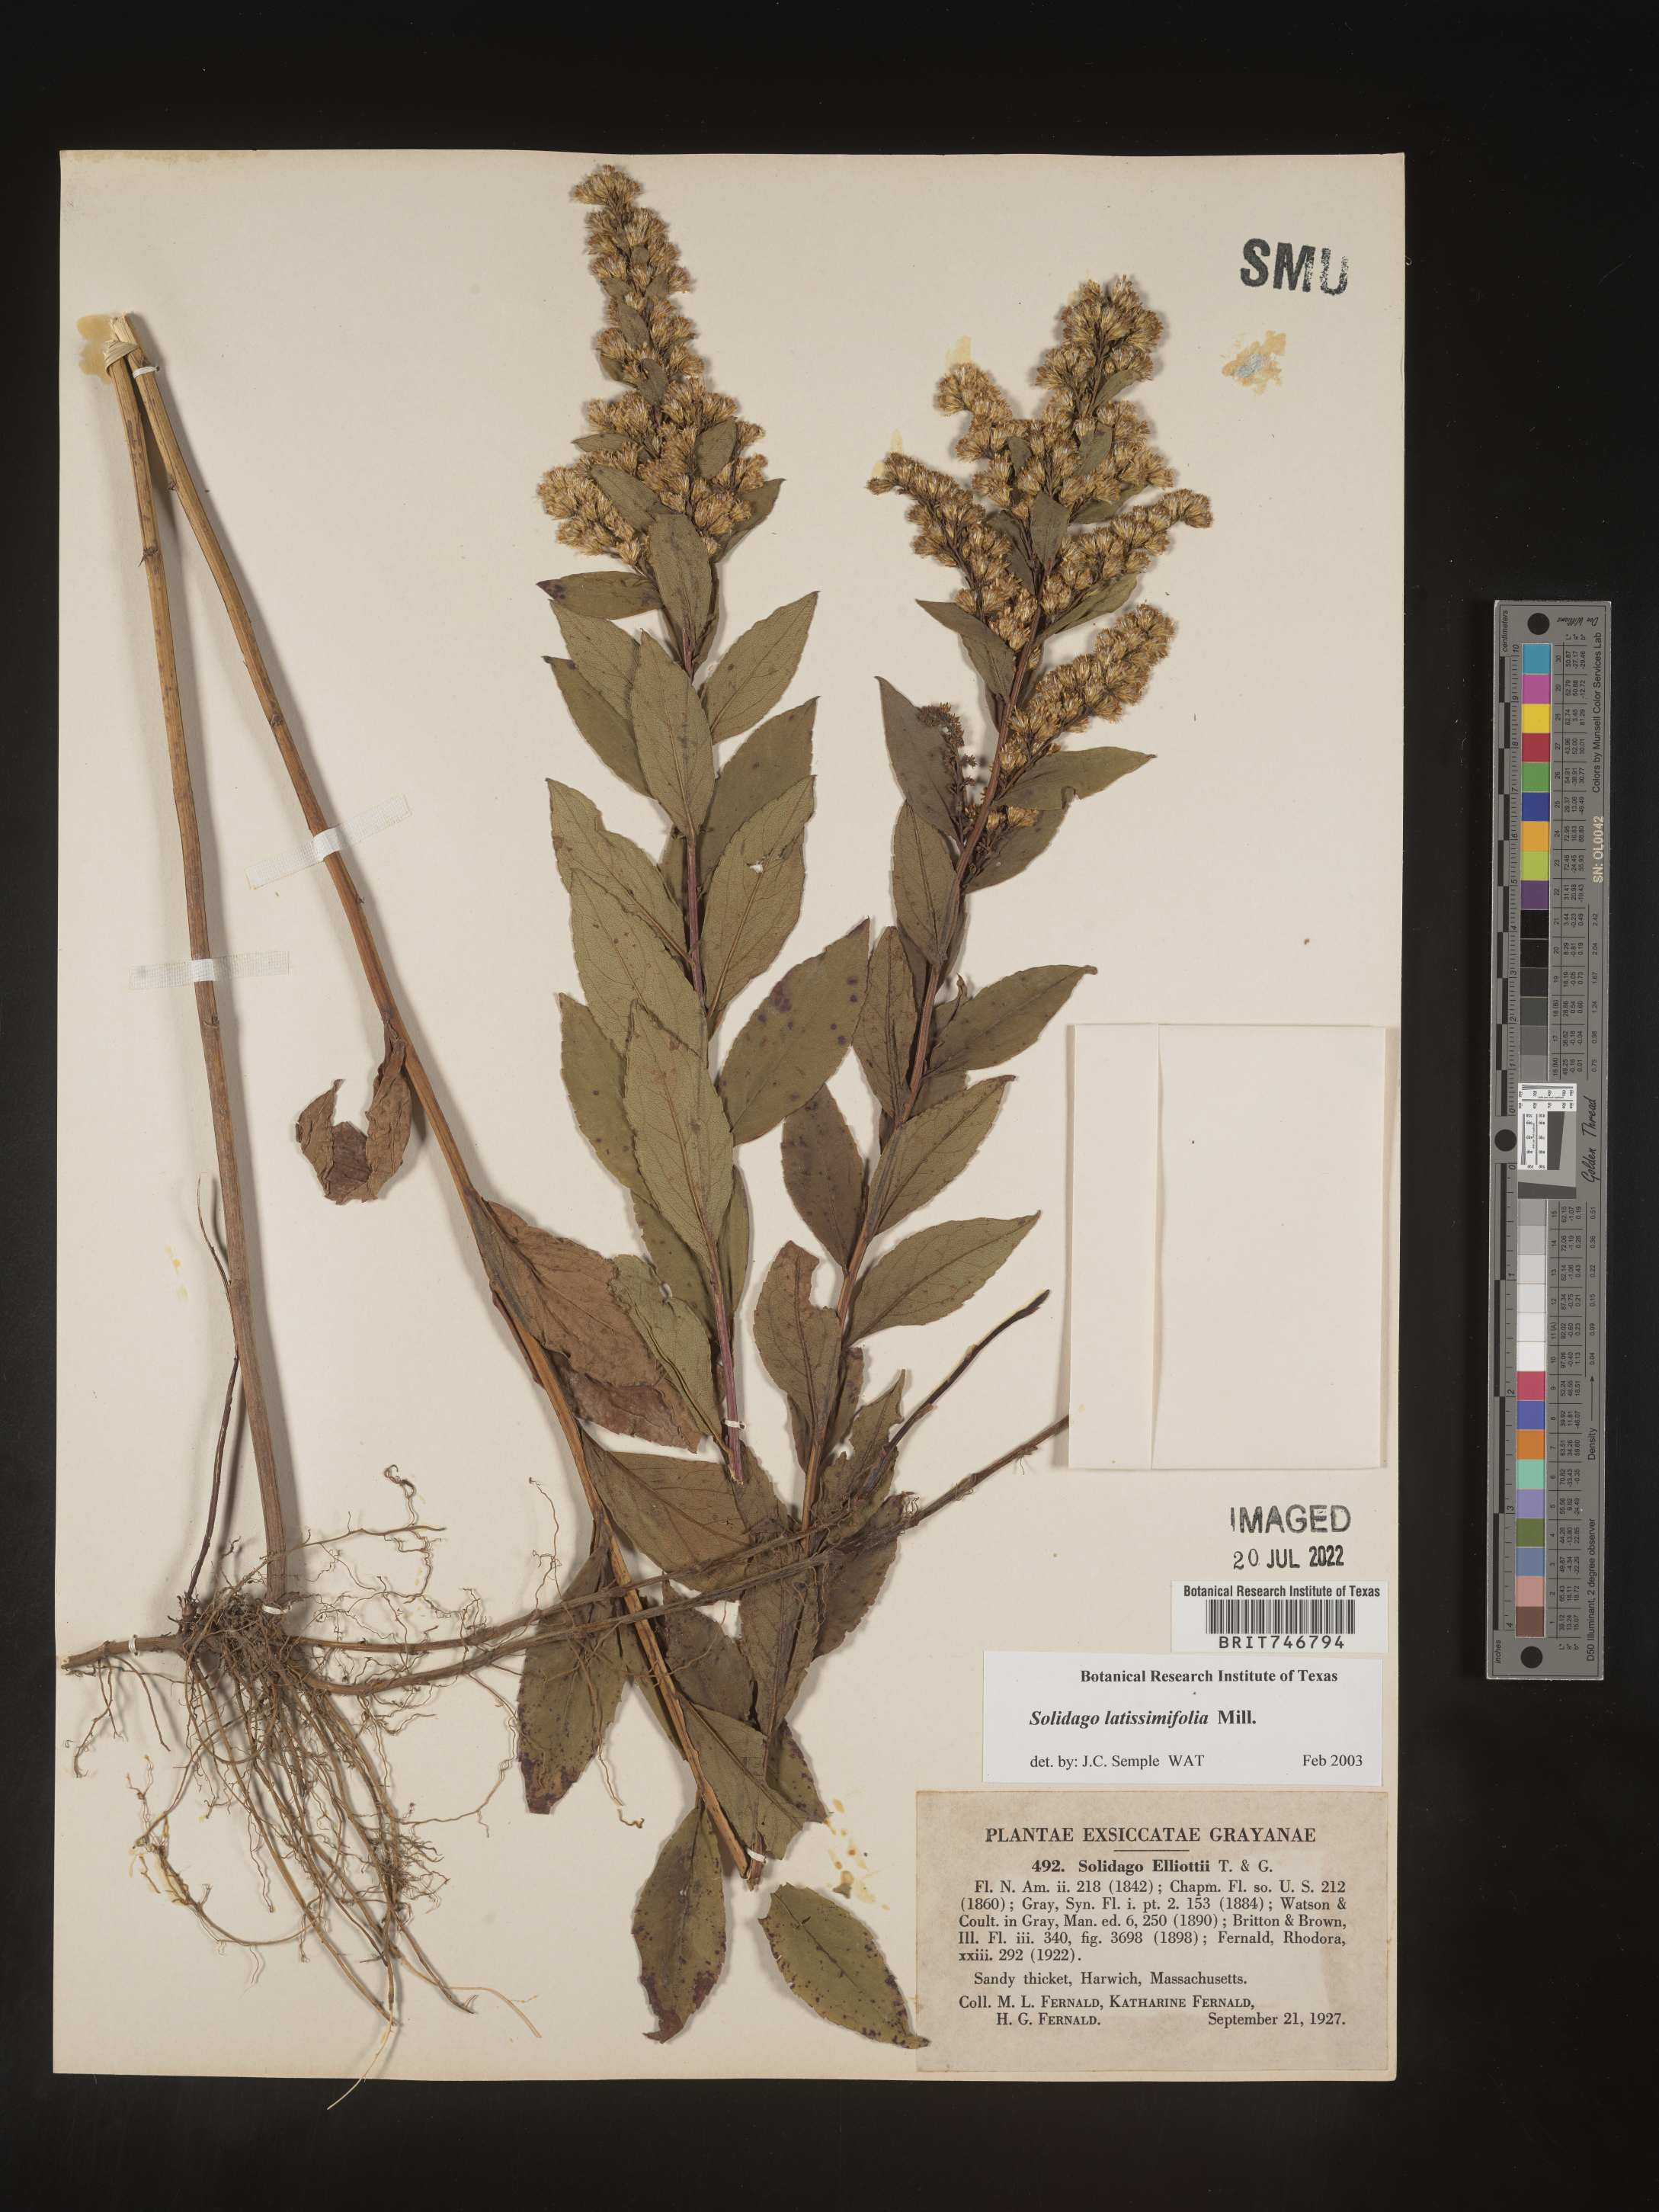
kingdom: Plantae
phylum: Tracheophyta
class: Magnoliopsida
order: Asterales
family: Asteraceae
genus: Solidago
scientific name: Solidago latissimifolia
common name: Elliott's goldenrod
